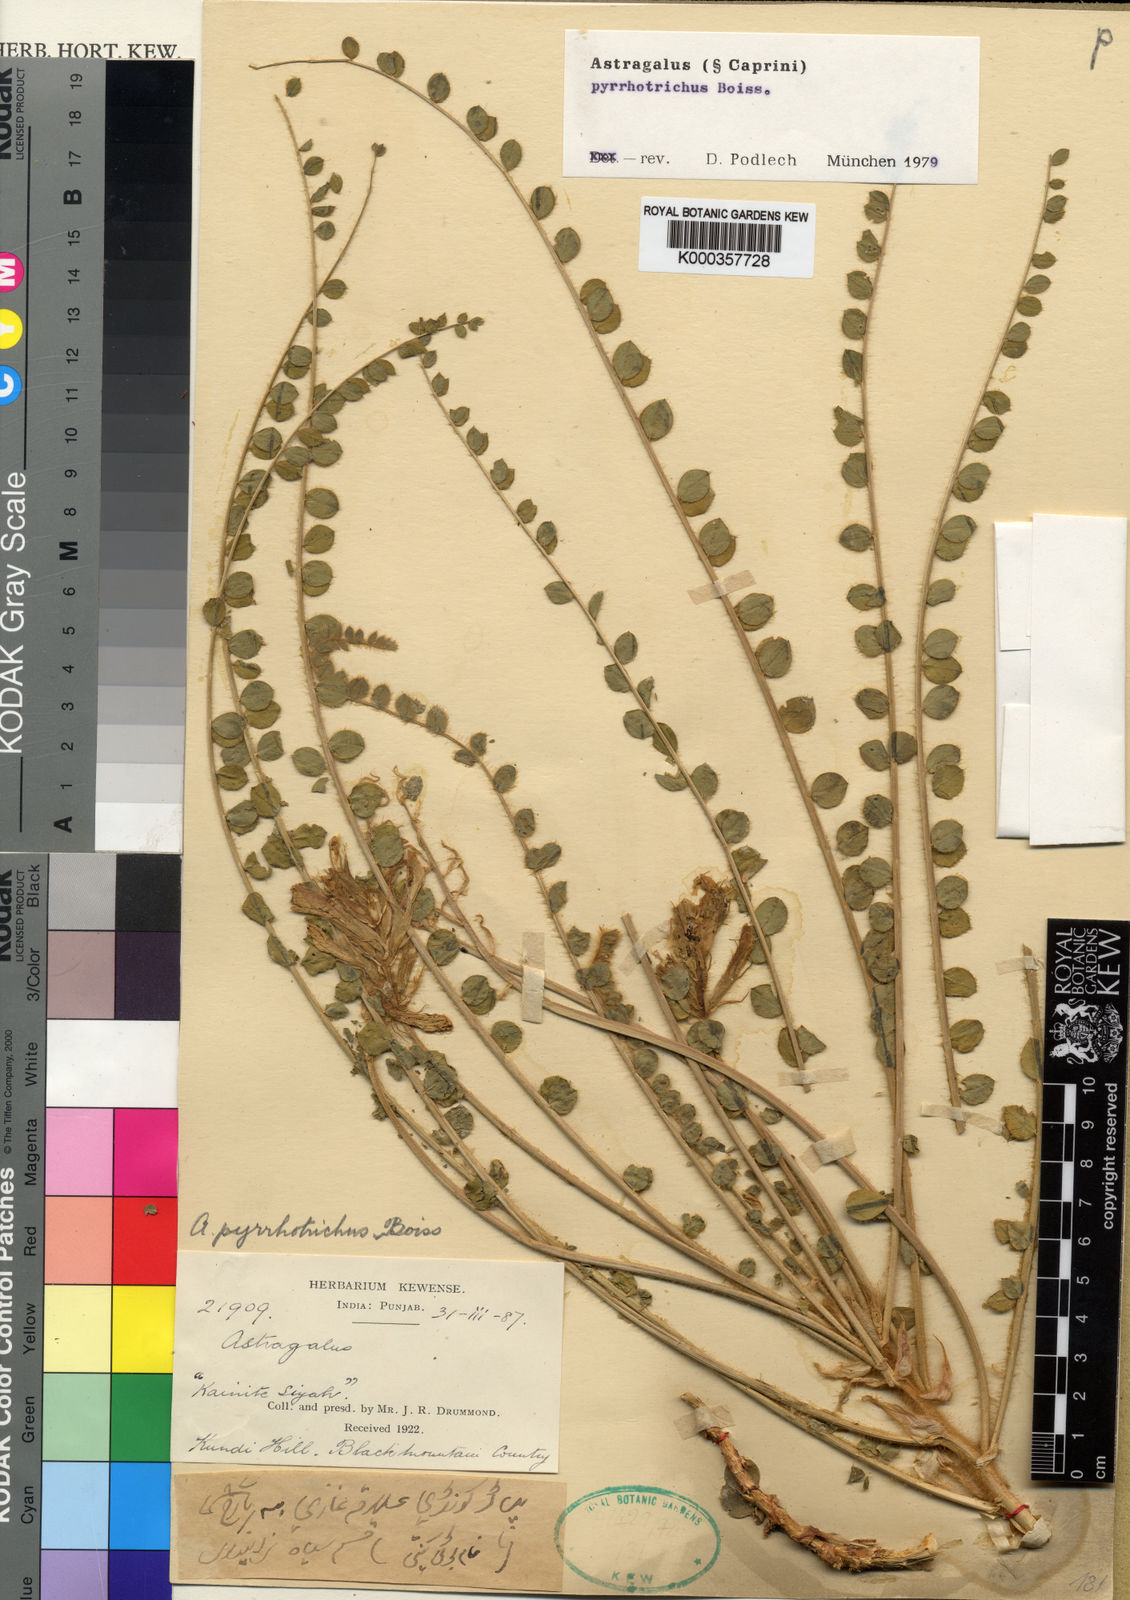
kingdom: Plantae
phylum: Tracheophyta
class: Magnoliopsida
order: Fabales
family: Fabaceae
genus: Astragalus
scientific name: Astragalus pyrrhotrichus
